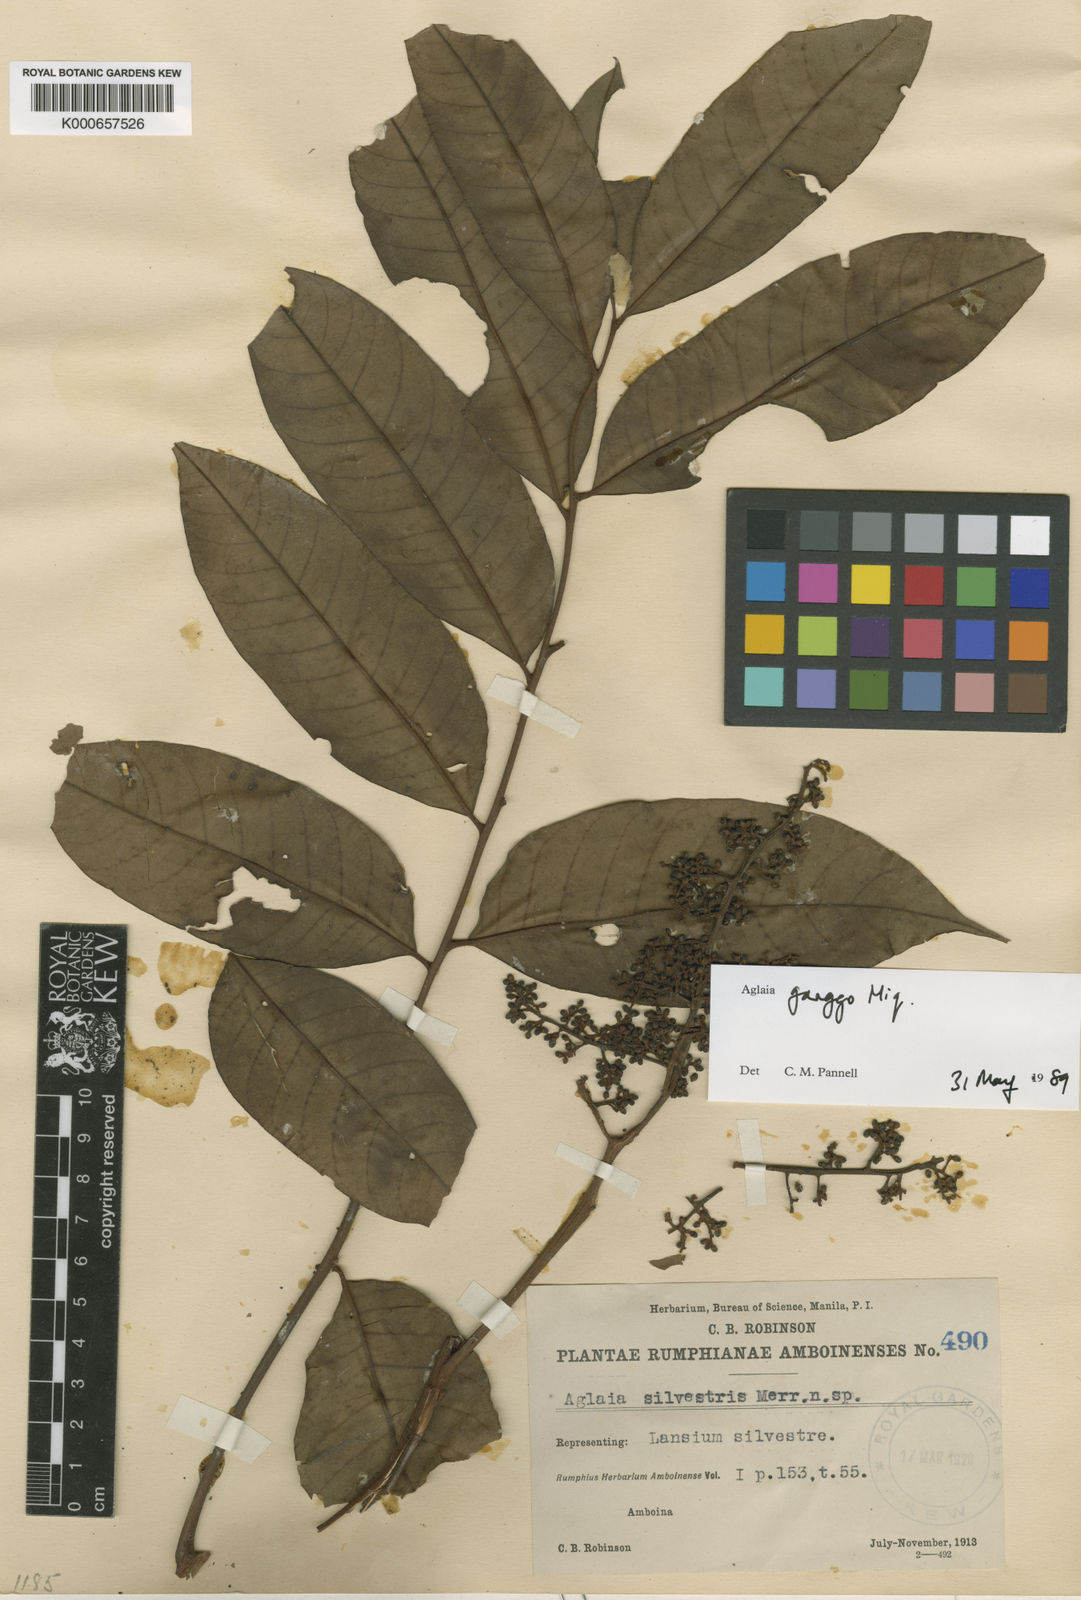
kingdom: Plantae
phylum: Tracheophyta
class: Magnoliopsida
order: Sapindales
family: Meliaceae
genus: Aglaia
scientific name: Aglaia silvestris
